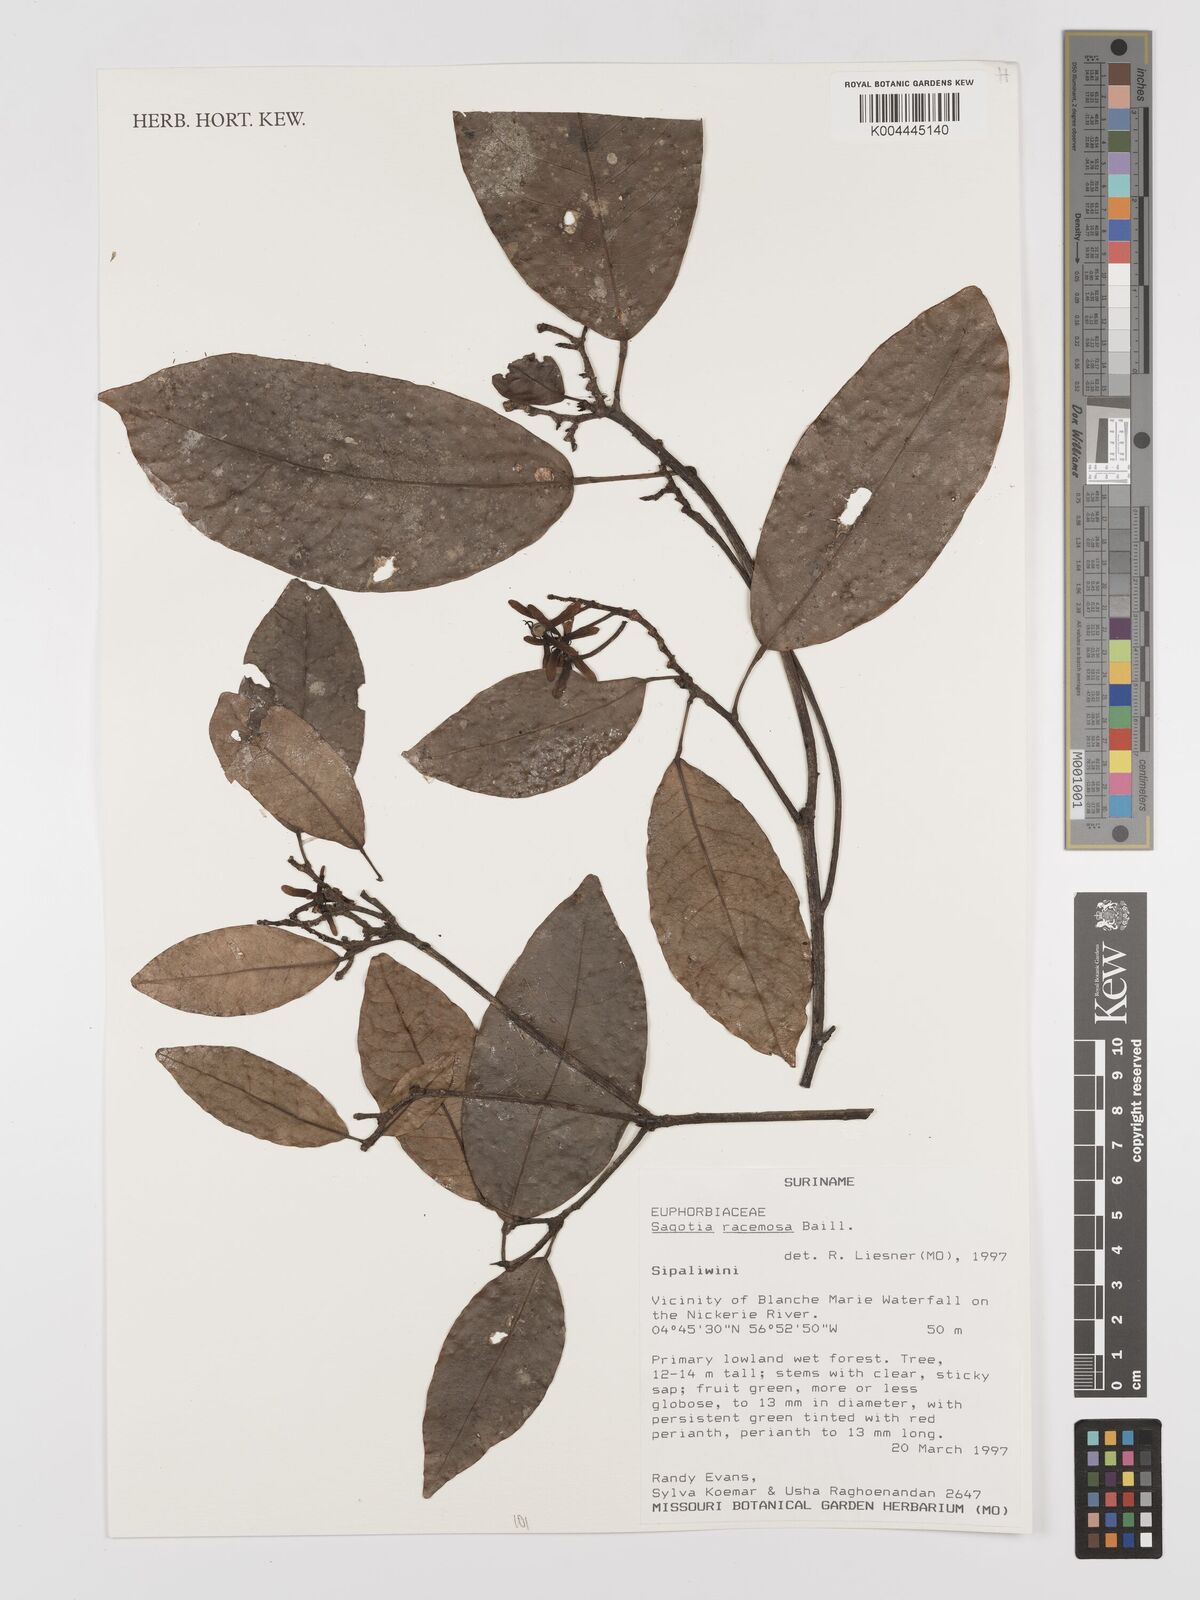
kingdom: Plantae
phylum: Tracheophyta
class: Magnoliopsida
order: Malpighiales
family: Euphorbiaceae
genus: Sagotia
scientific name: Sagotia racemosa
